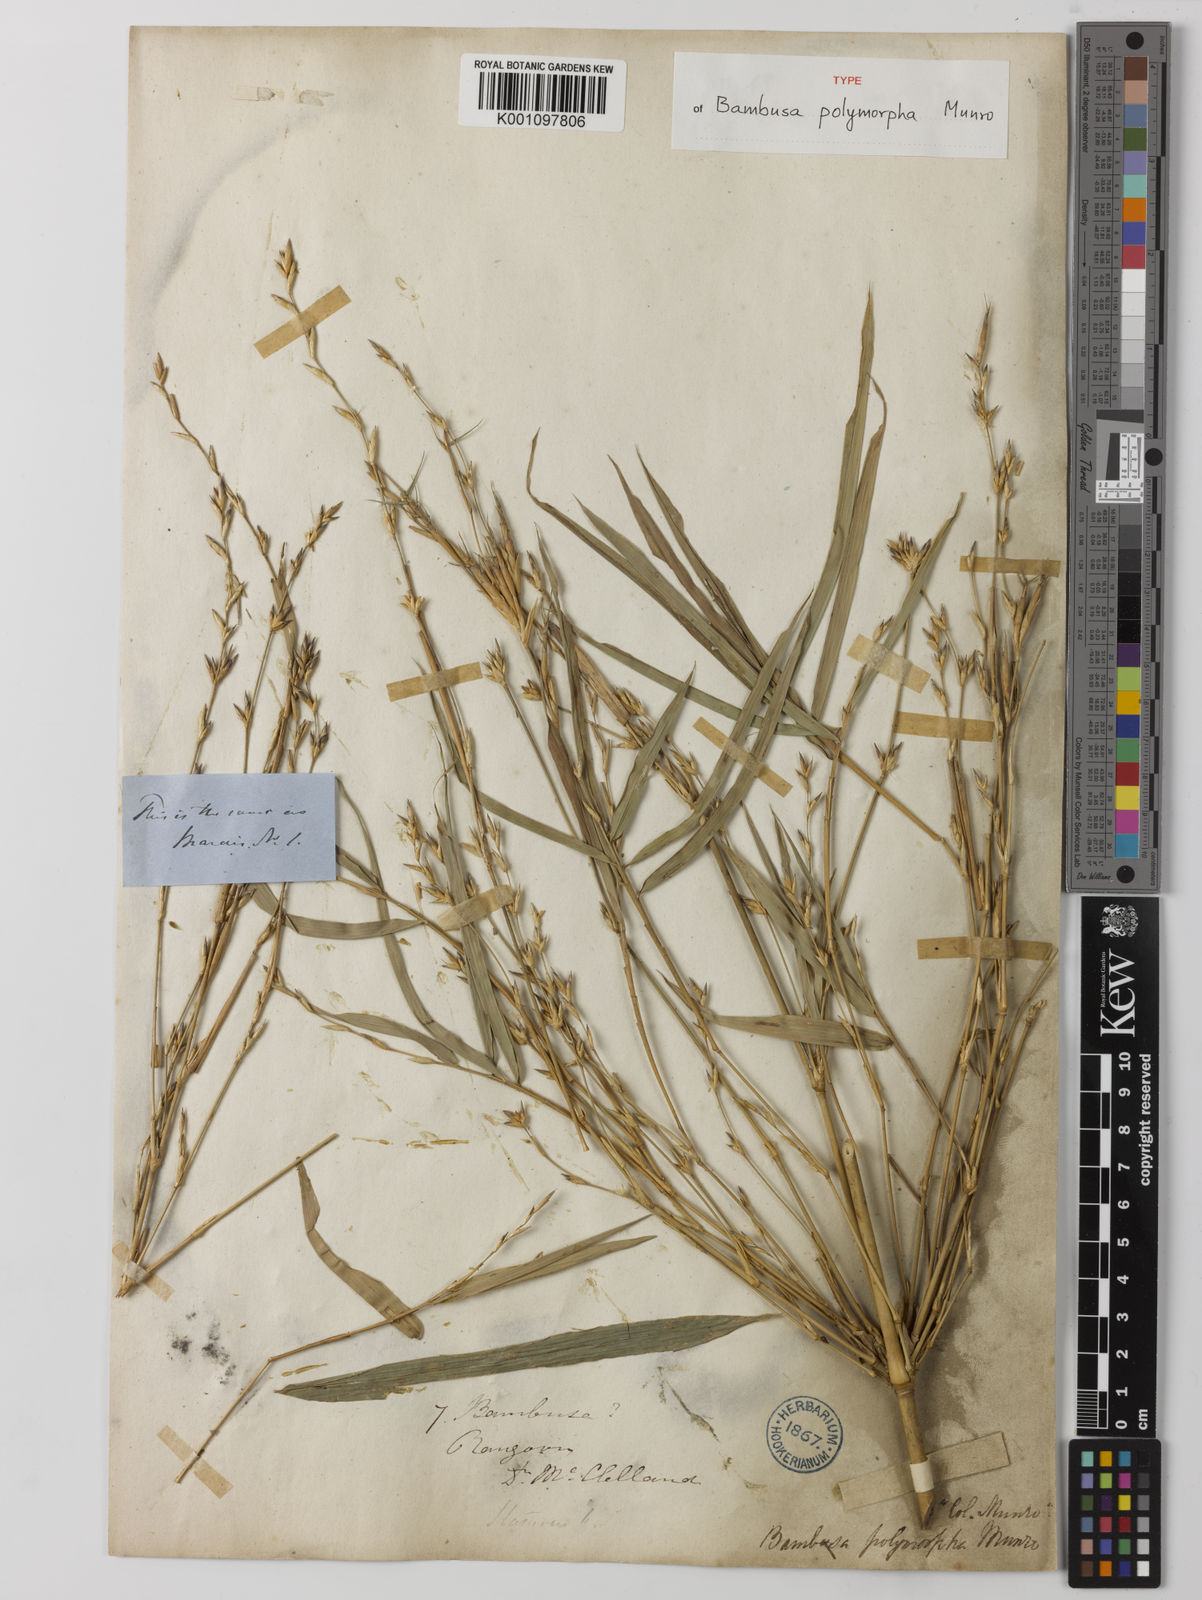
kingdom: Plantae
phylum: Tracheophyta
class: Liliopsida
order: Poales
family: Poaceae
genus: Bambusa
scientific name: Bambusa polymorpha
